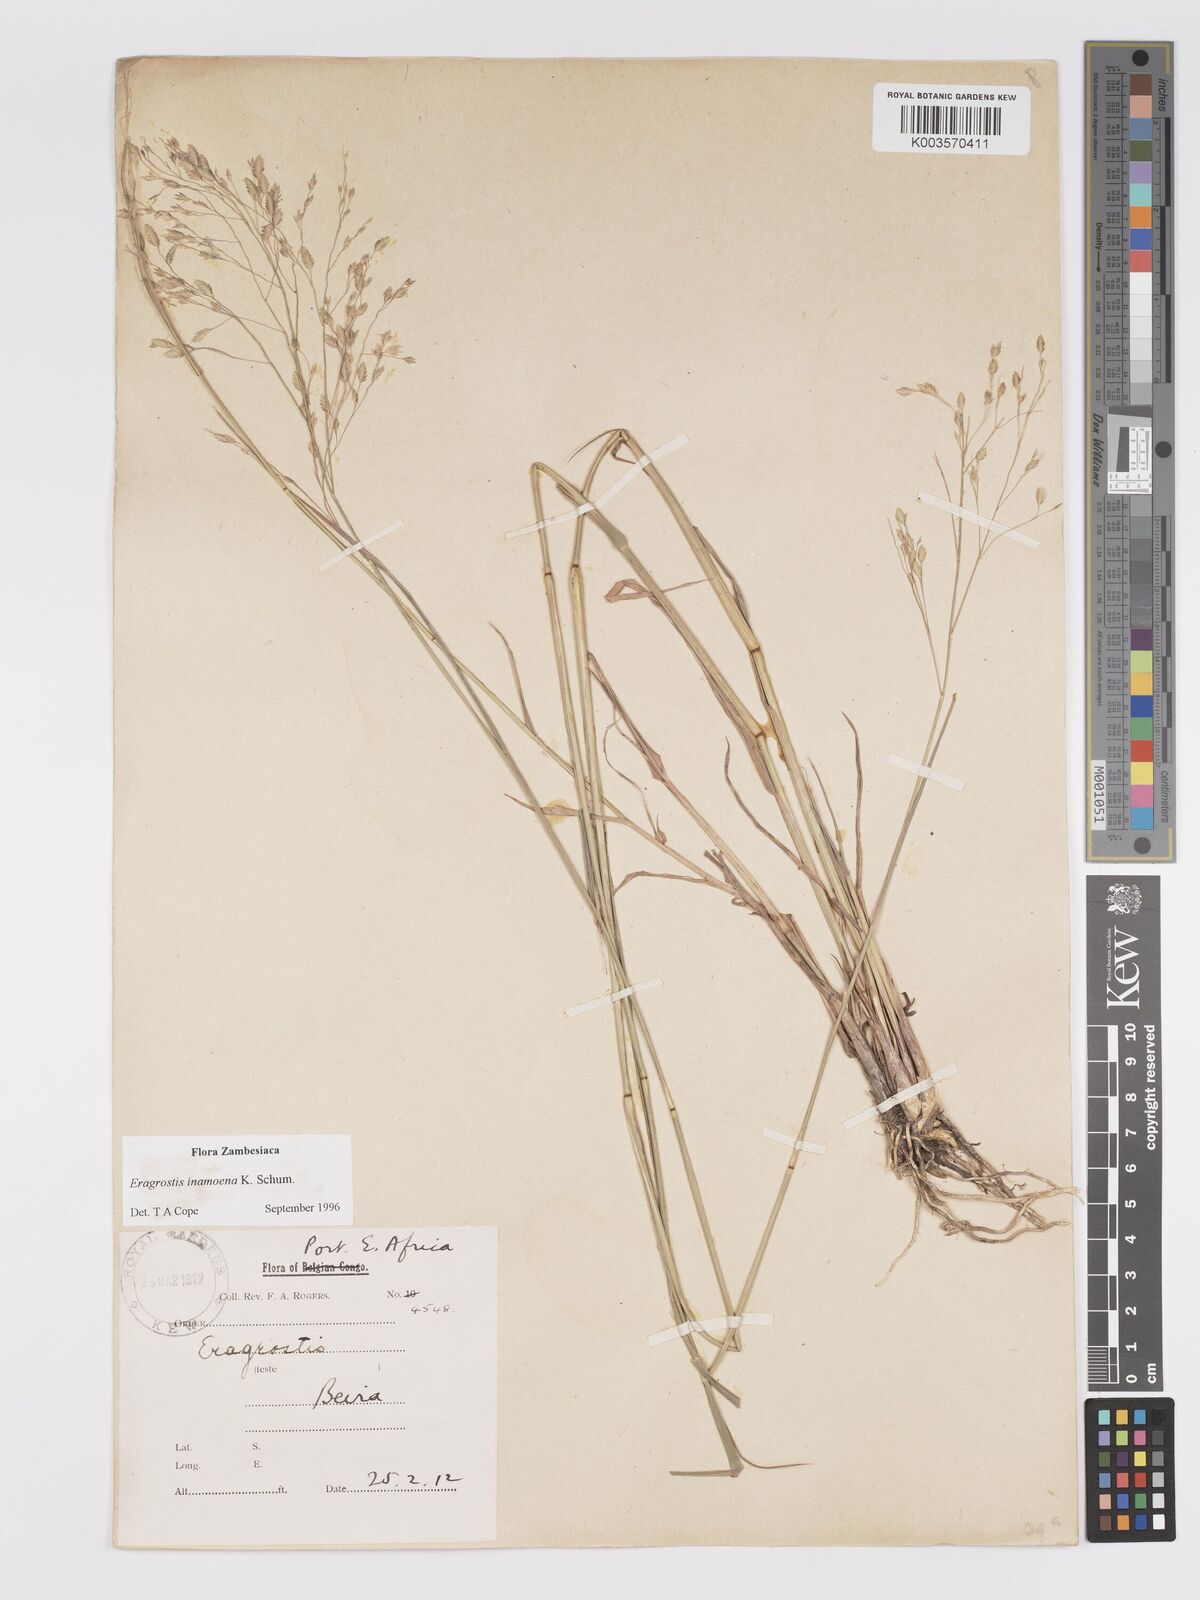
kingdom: Plantae
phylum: Tracheophyta
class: Liliopsida
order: Poales
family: Poaceae
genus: Eragrostis
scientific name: Eragrostis inamoena
